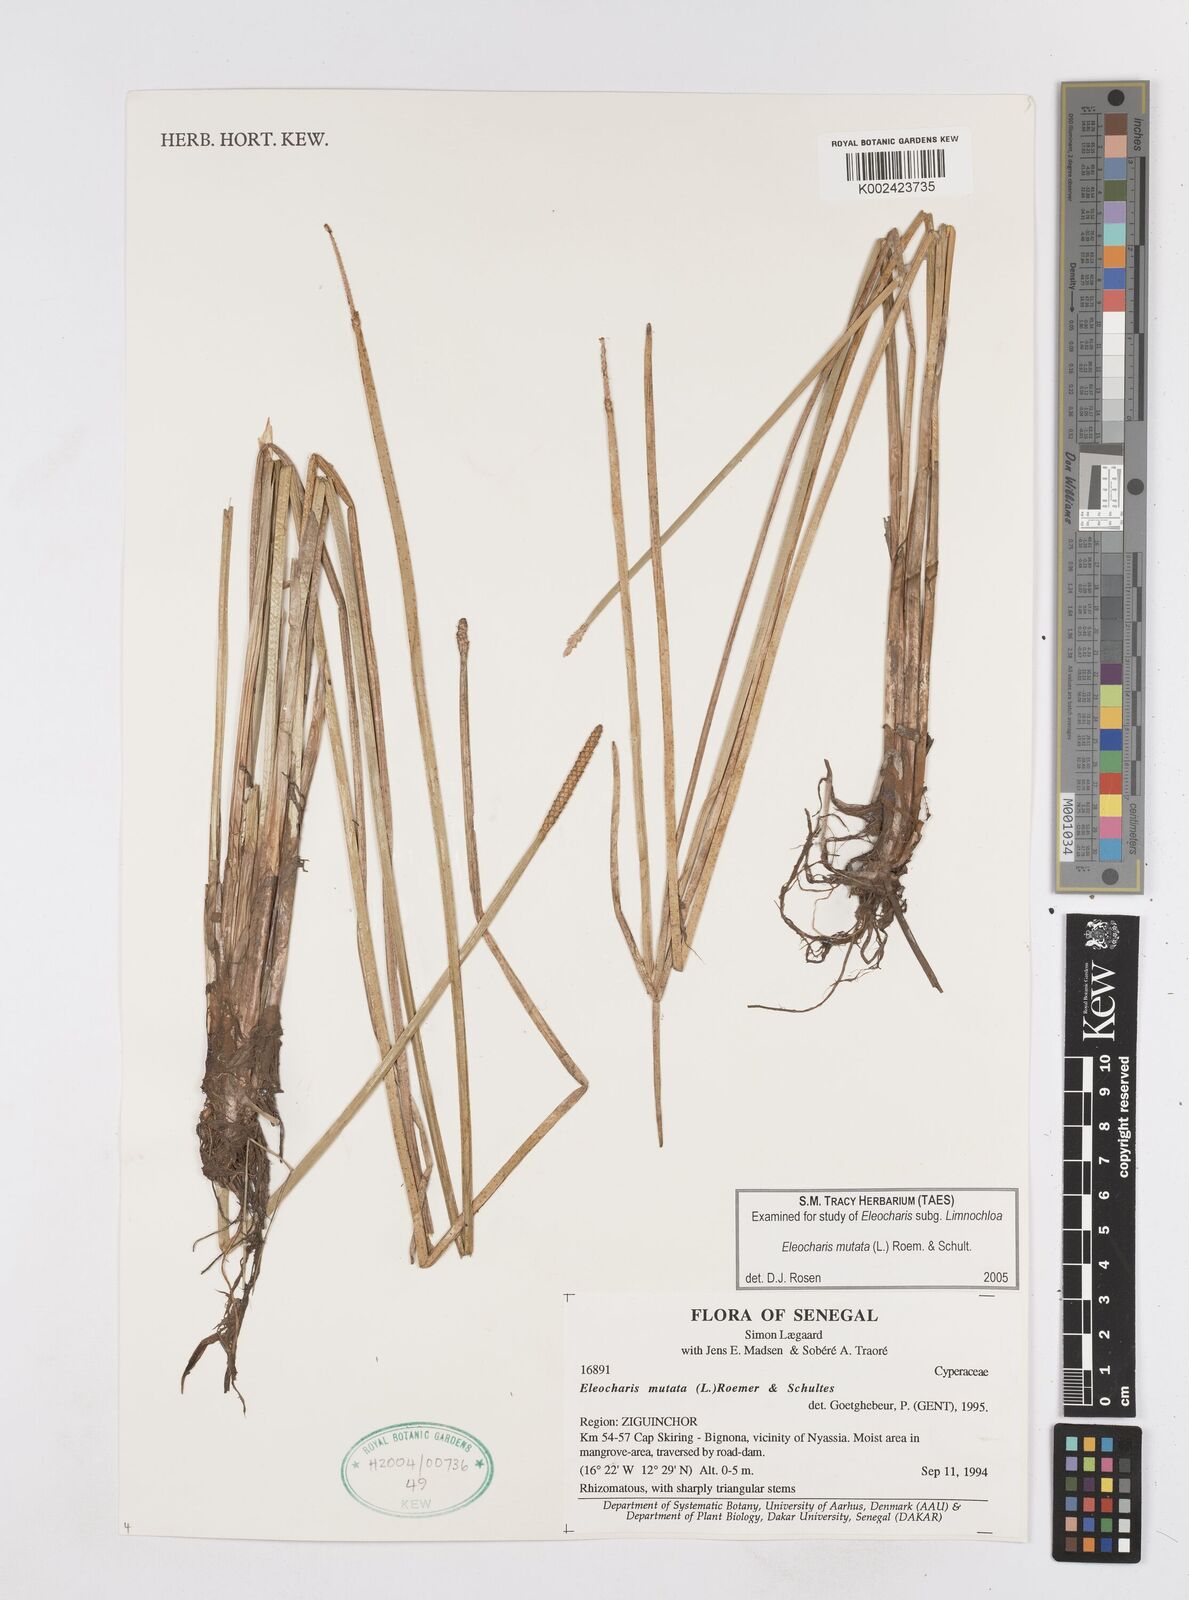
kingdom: Plantae
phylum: Tracheophyta
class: Liliopsida
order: Poales
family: Cyperaceae
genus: Eleocharis
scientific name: Eleocharis mutata
